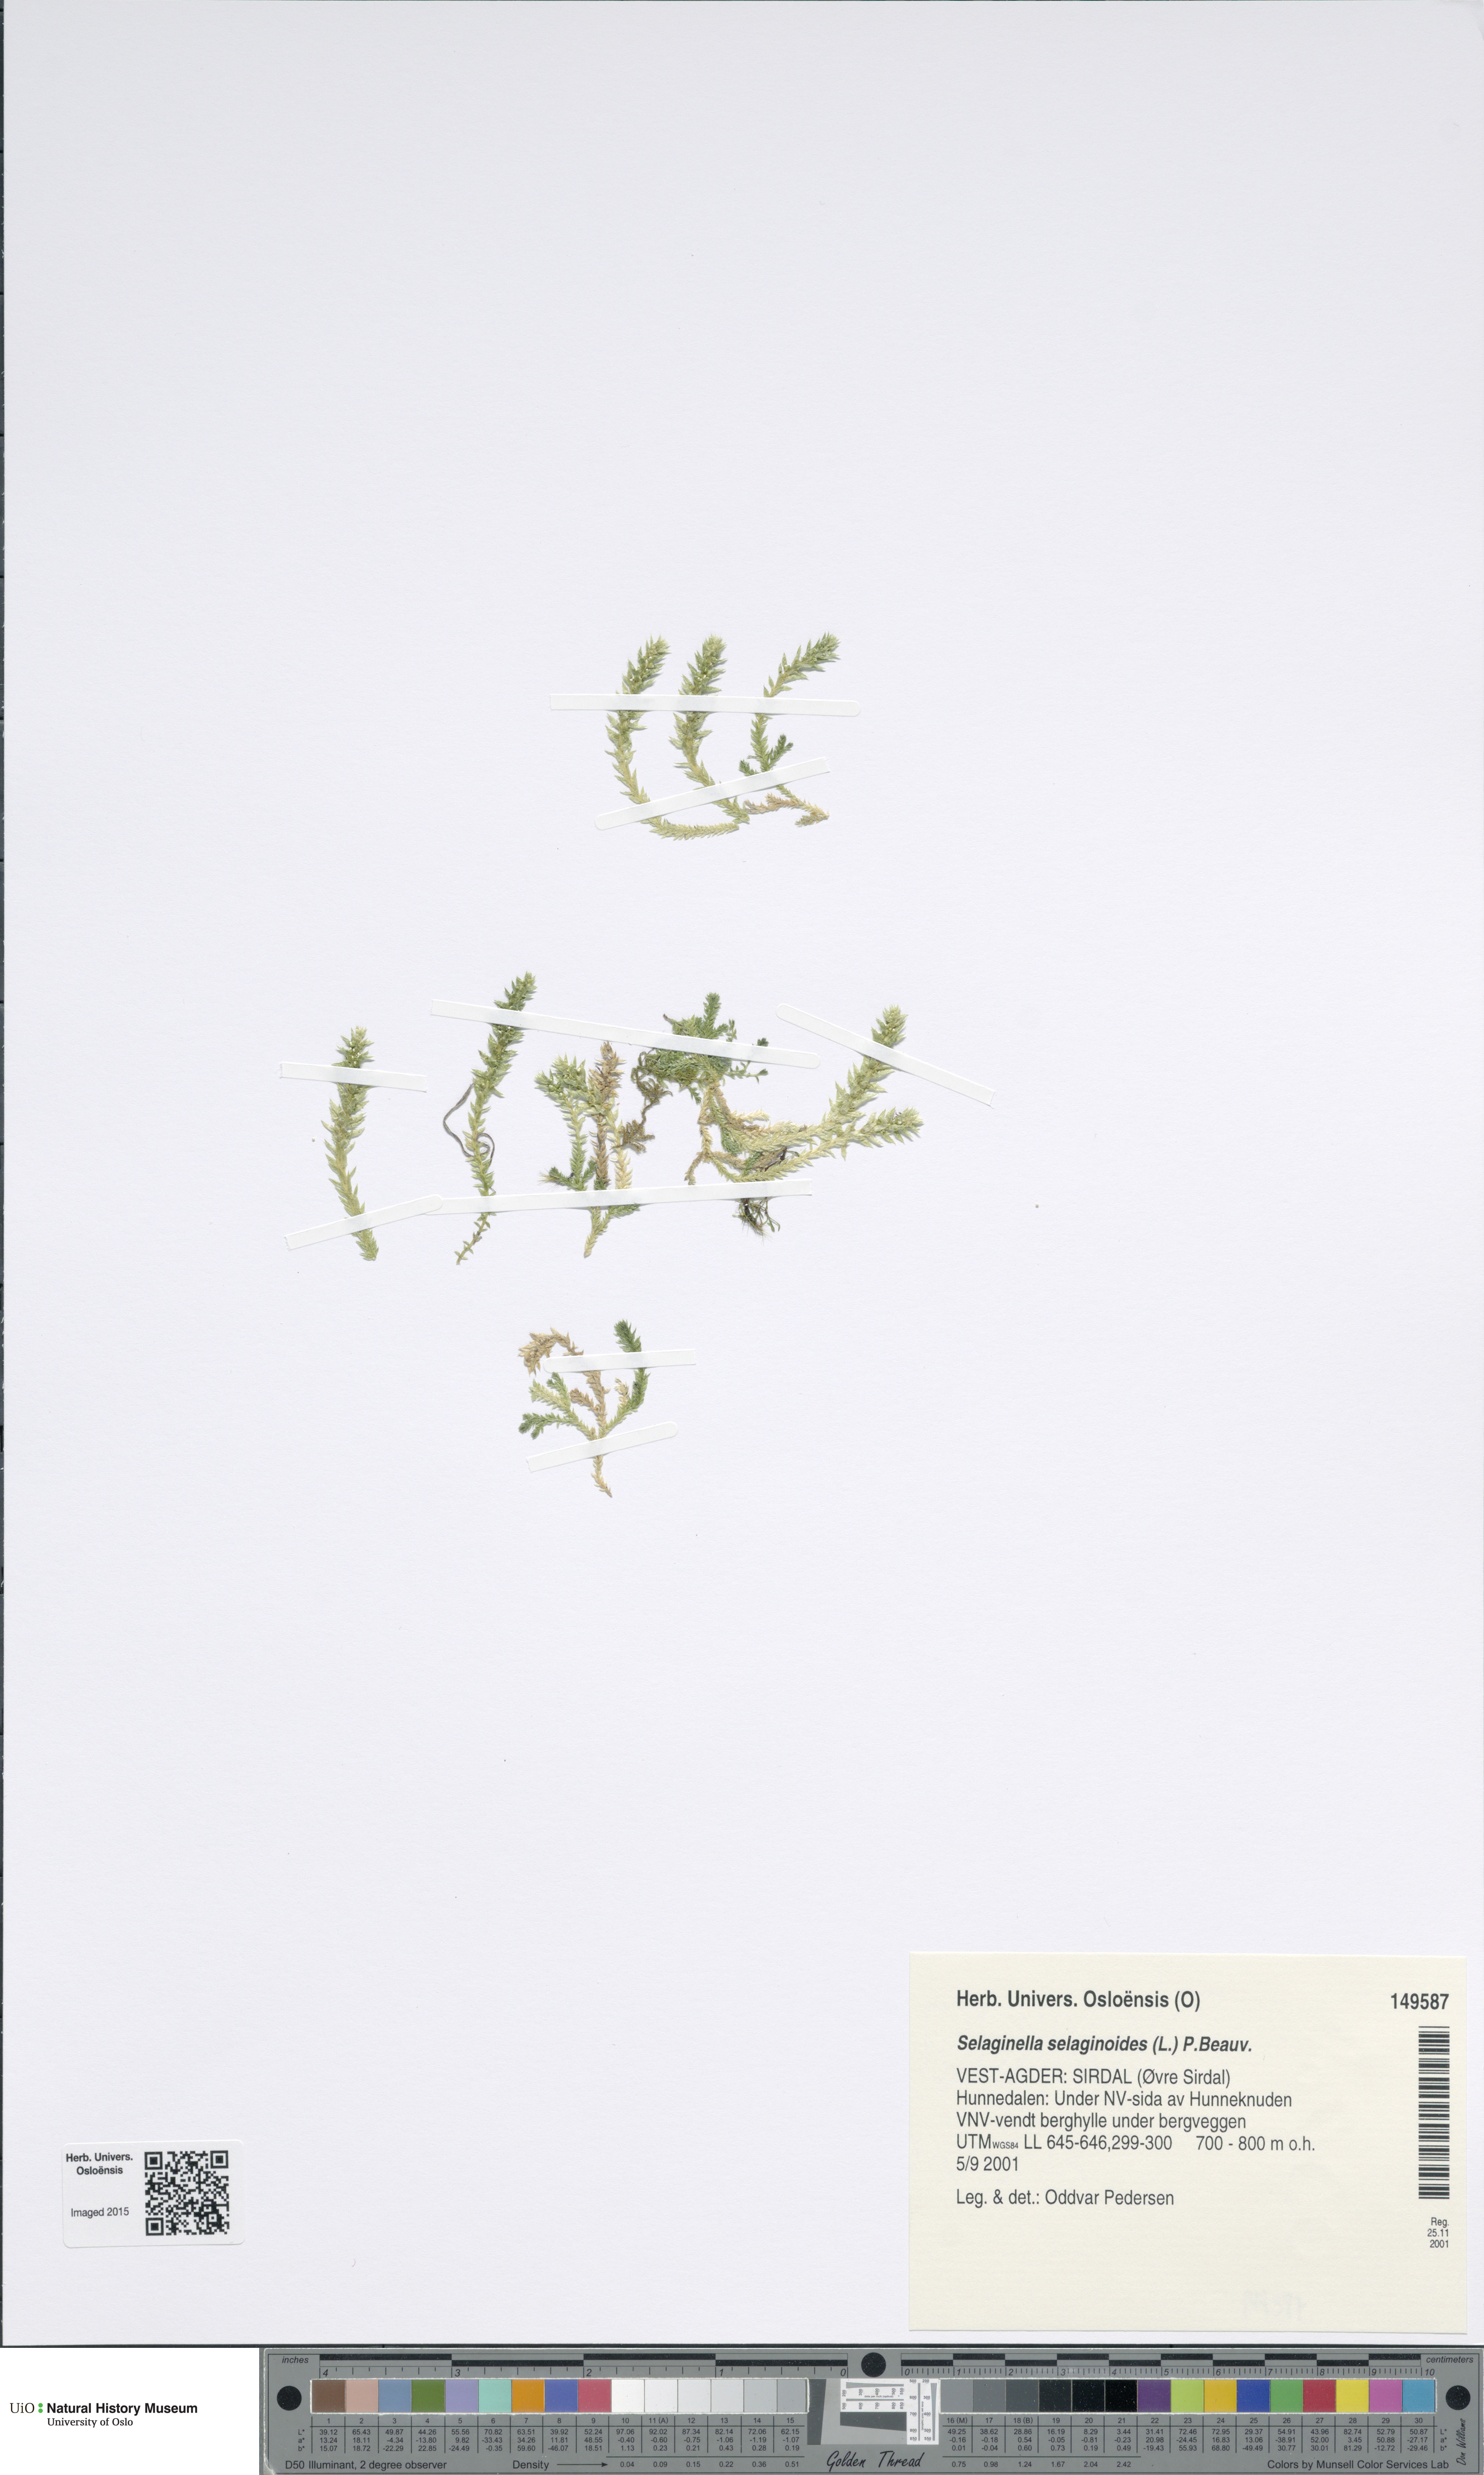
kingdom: Plantae
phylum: Tracheophyta
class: Lycopodiopsida
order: Selaginellales
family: Selaginellaceae
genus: Selaginella
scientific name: Selaginella selaginoides
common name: Prickly mountain-moss
